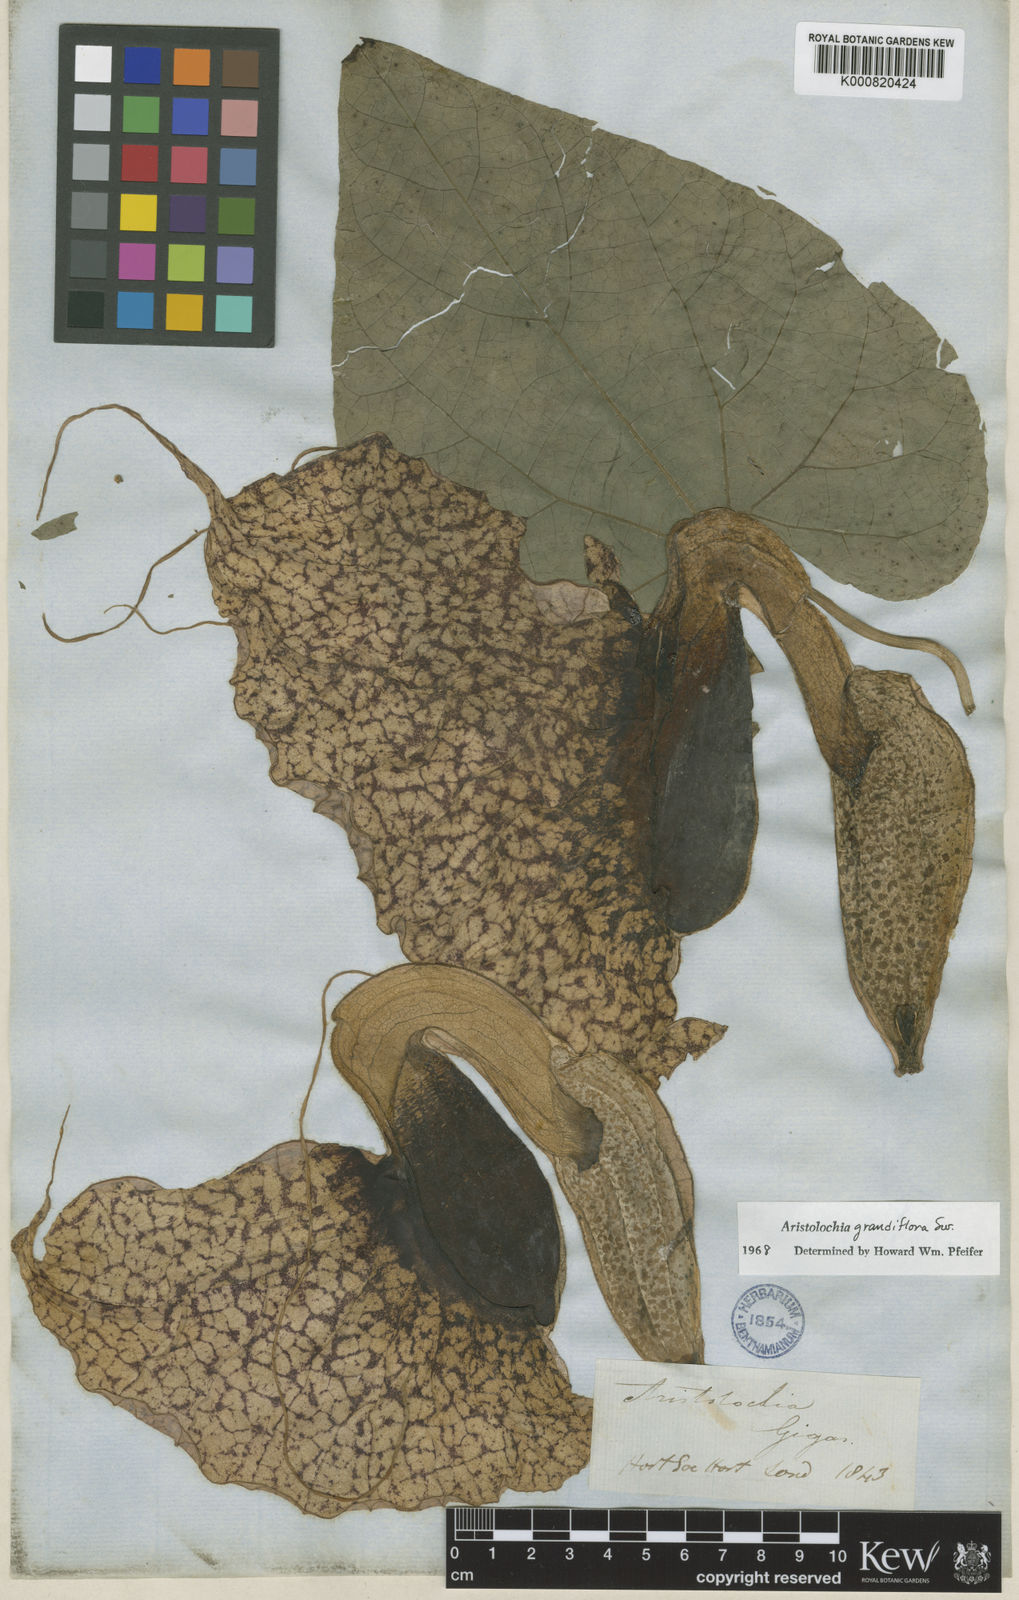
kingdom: Plantae
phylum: Tracheophyta
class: Magnoliopsida
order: Piperales
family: Aristolochiaceae
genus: Aristolochia
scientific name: Aristolochia grandiflora
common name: Pelicanflower
